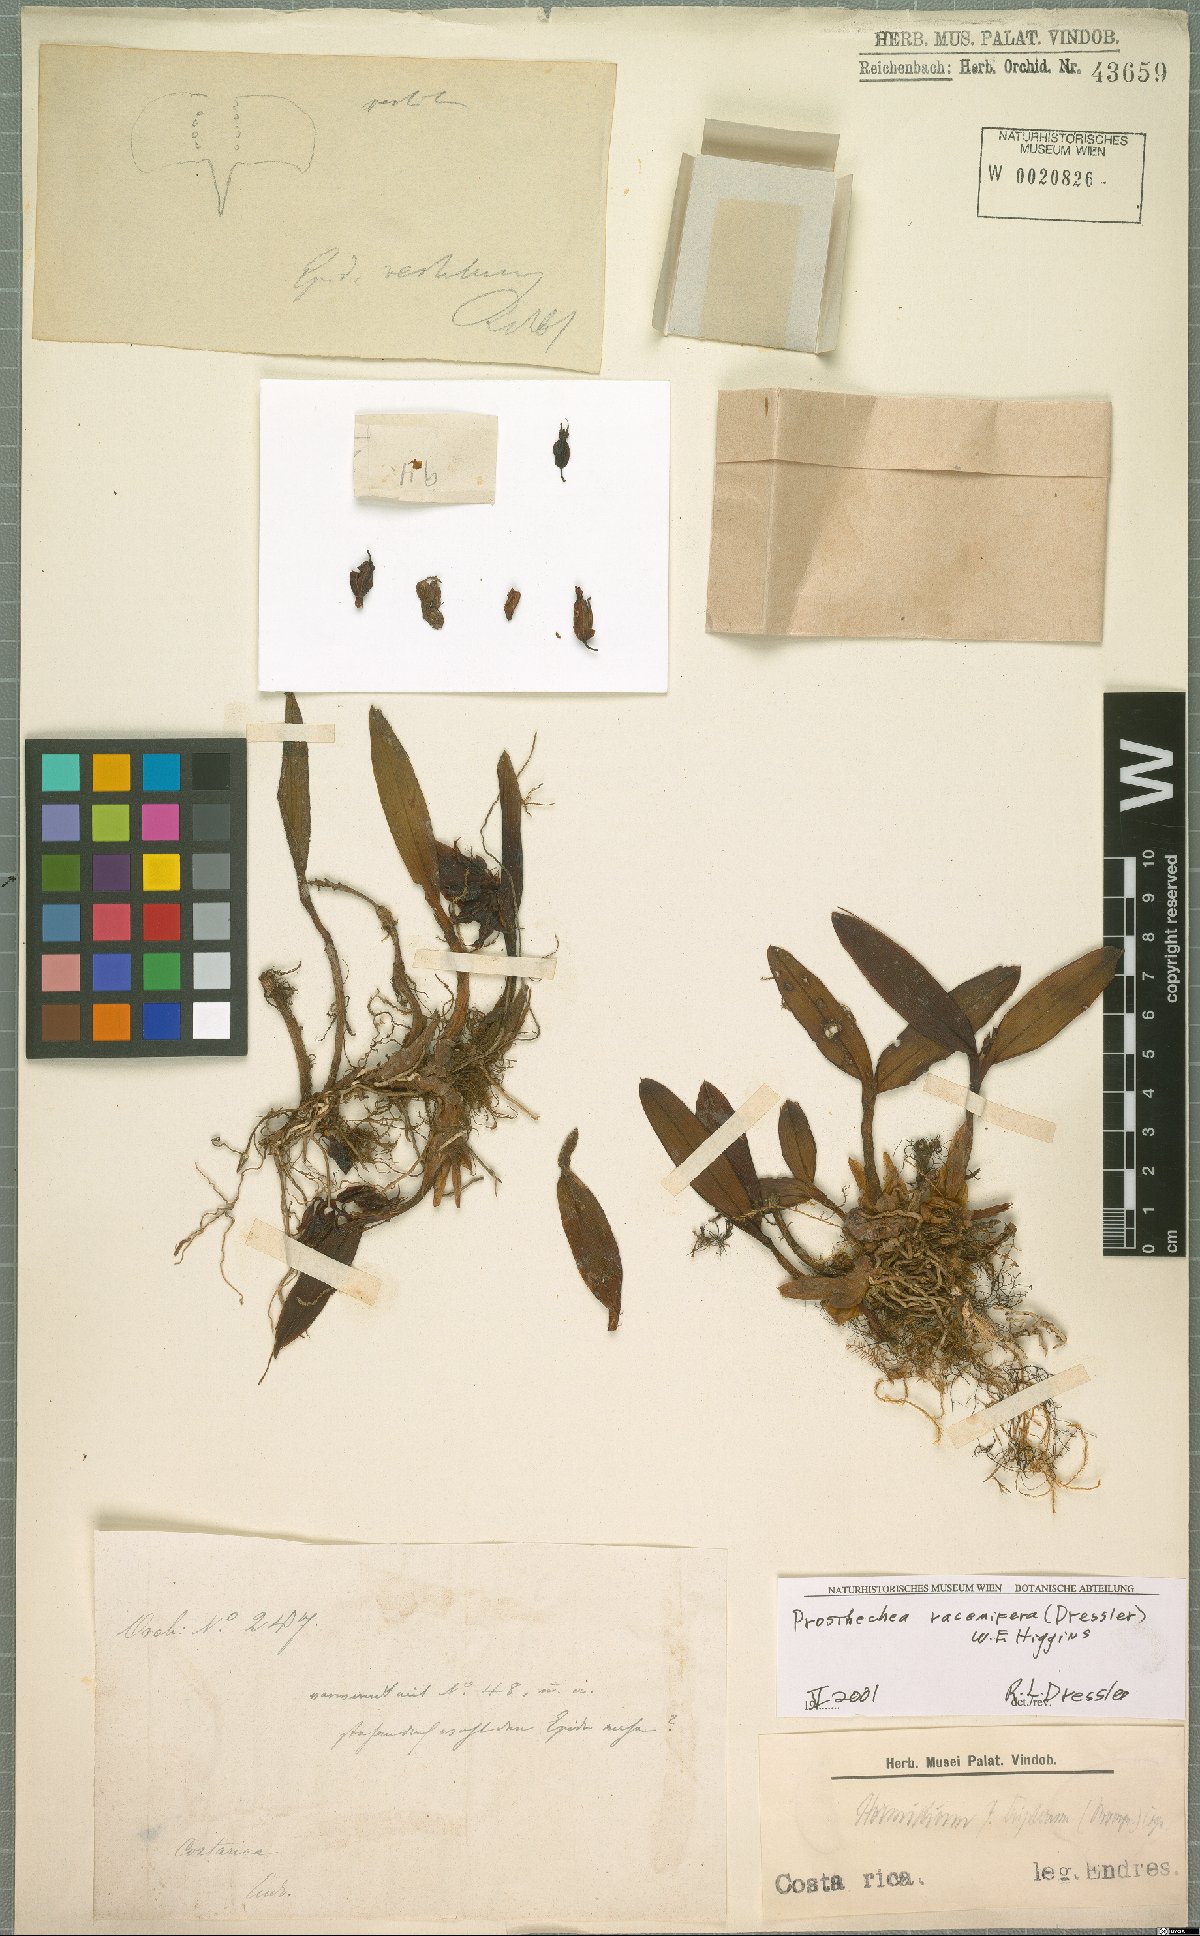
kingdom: Plantae
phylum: Tracheophyta
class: Liliopsida
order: Asparagales
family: Orchidaceae
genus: Prosthechea
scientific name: Prosthechea racemifera
